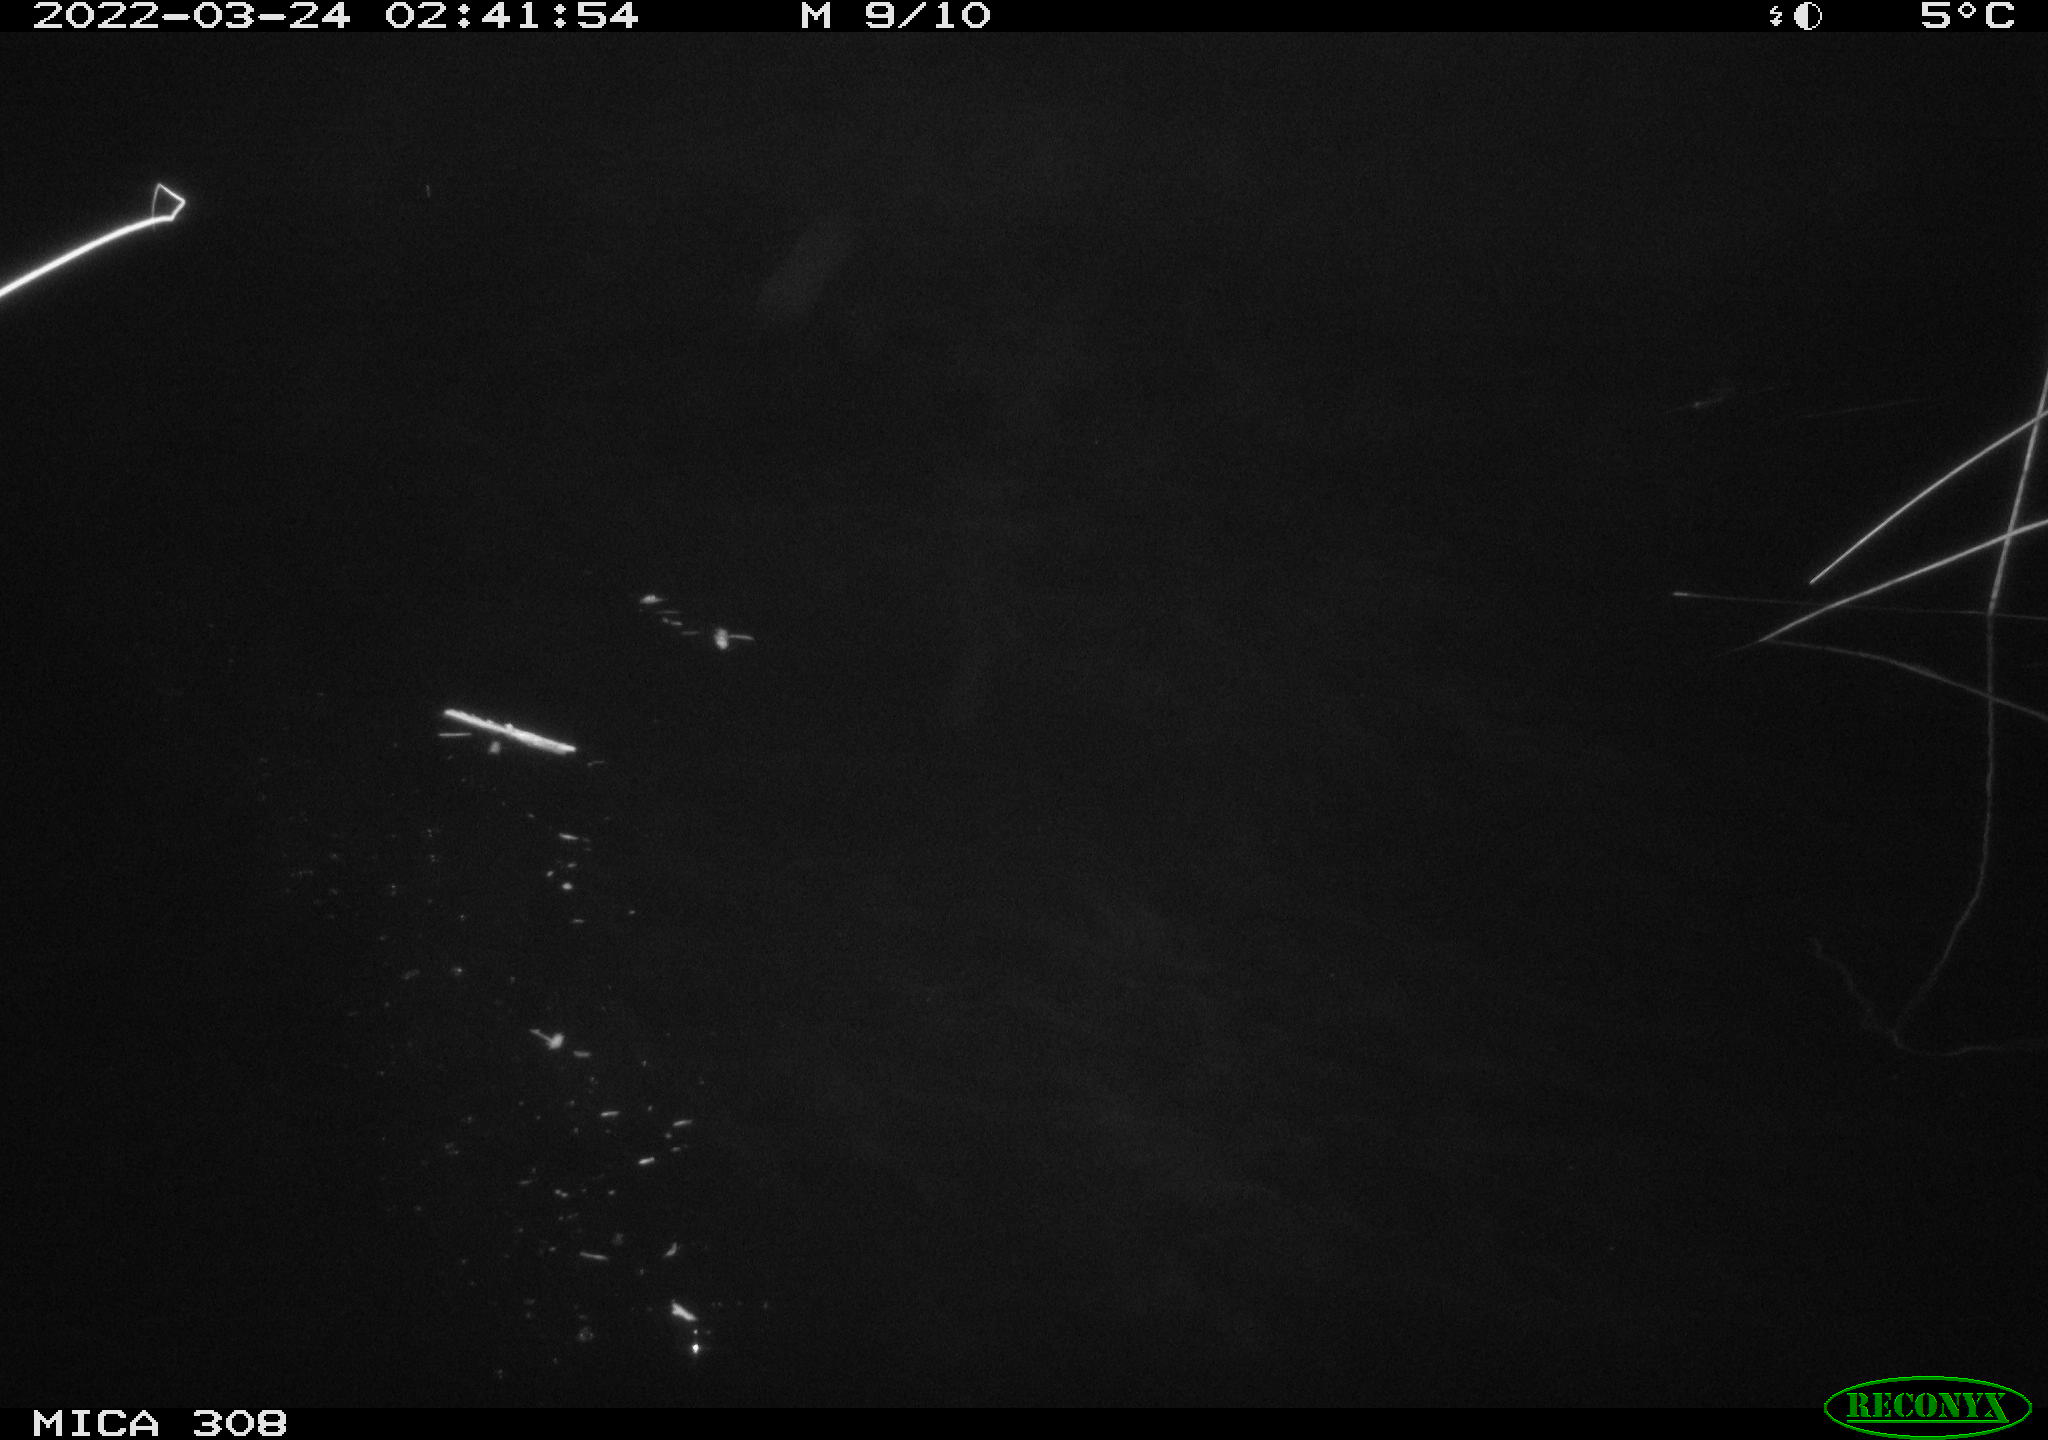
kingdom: Animalia
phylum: Chordata
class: Aves
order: Anseriformes
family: Anatidae
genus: Anas
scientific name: Anas platyrhynchos
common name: Mallard
